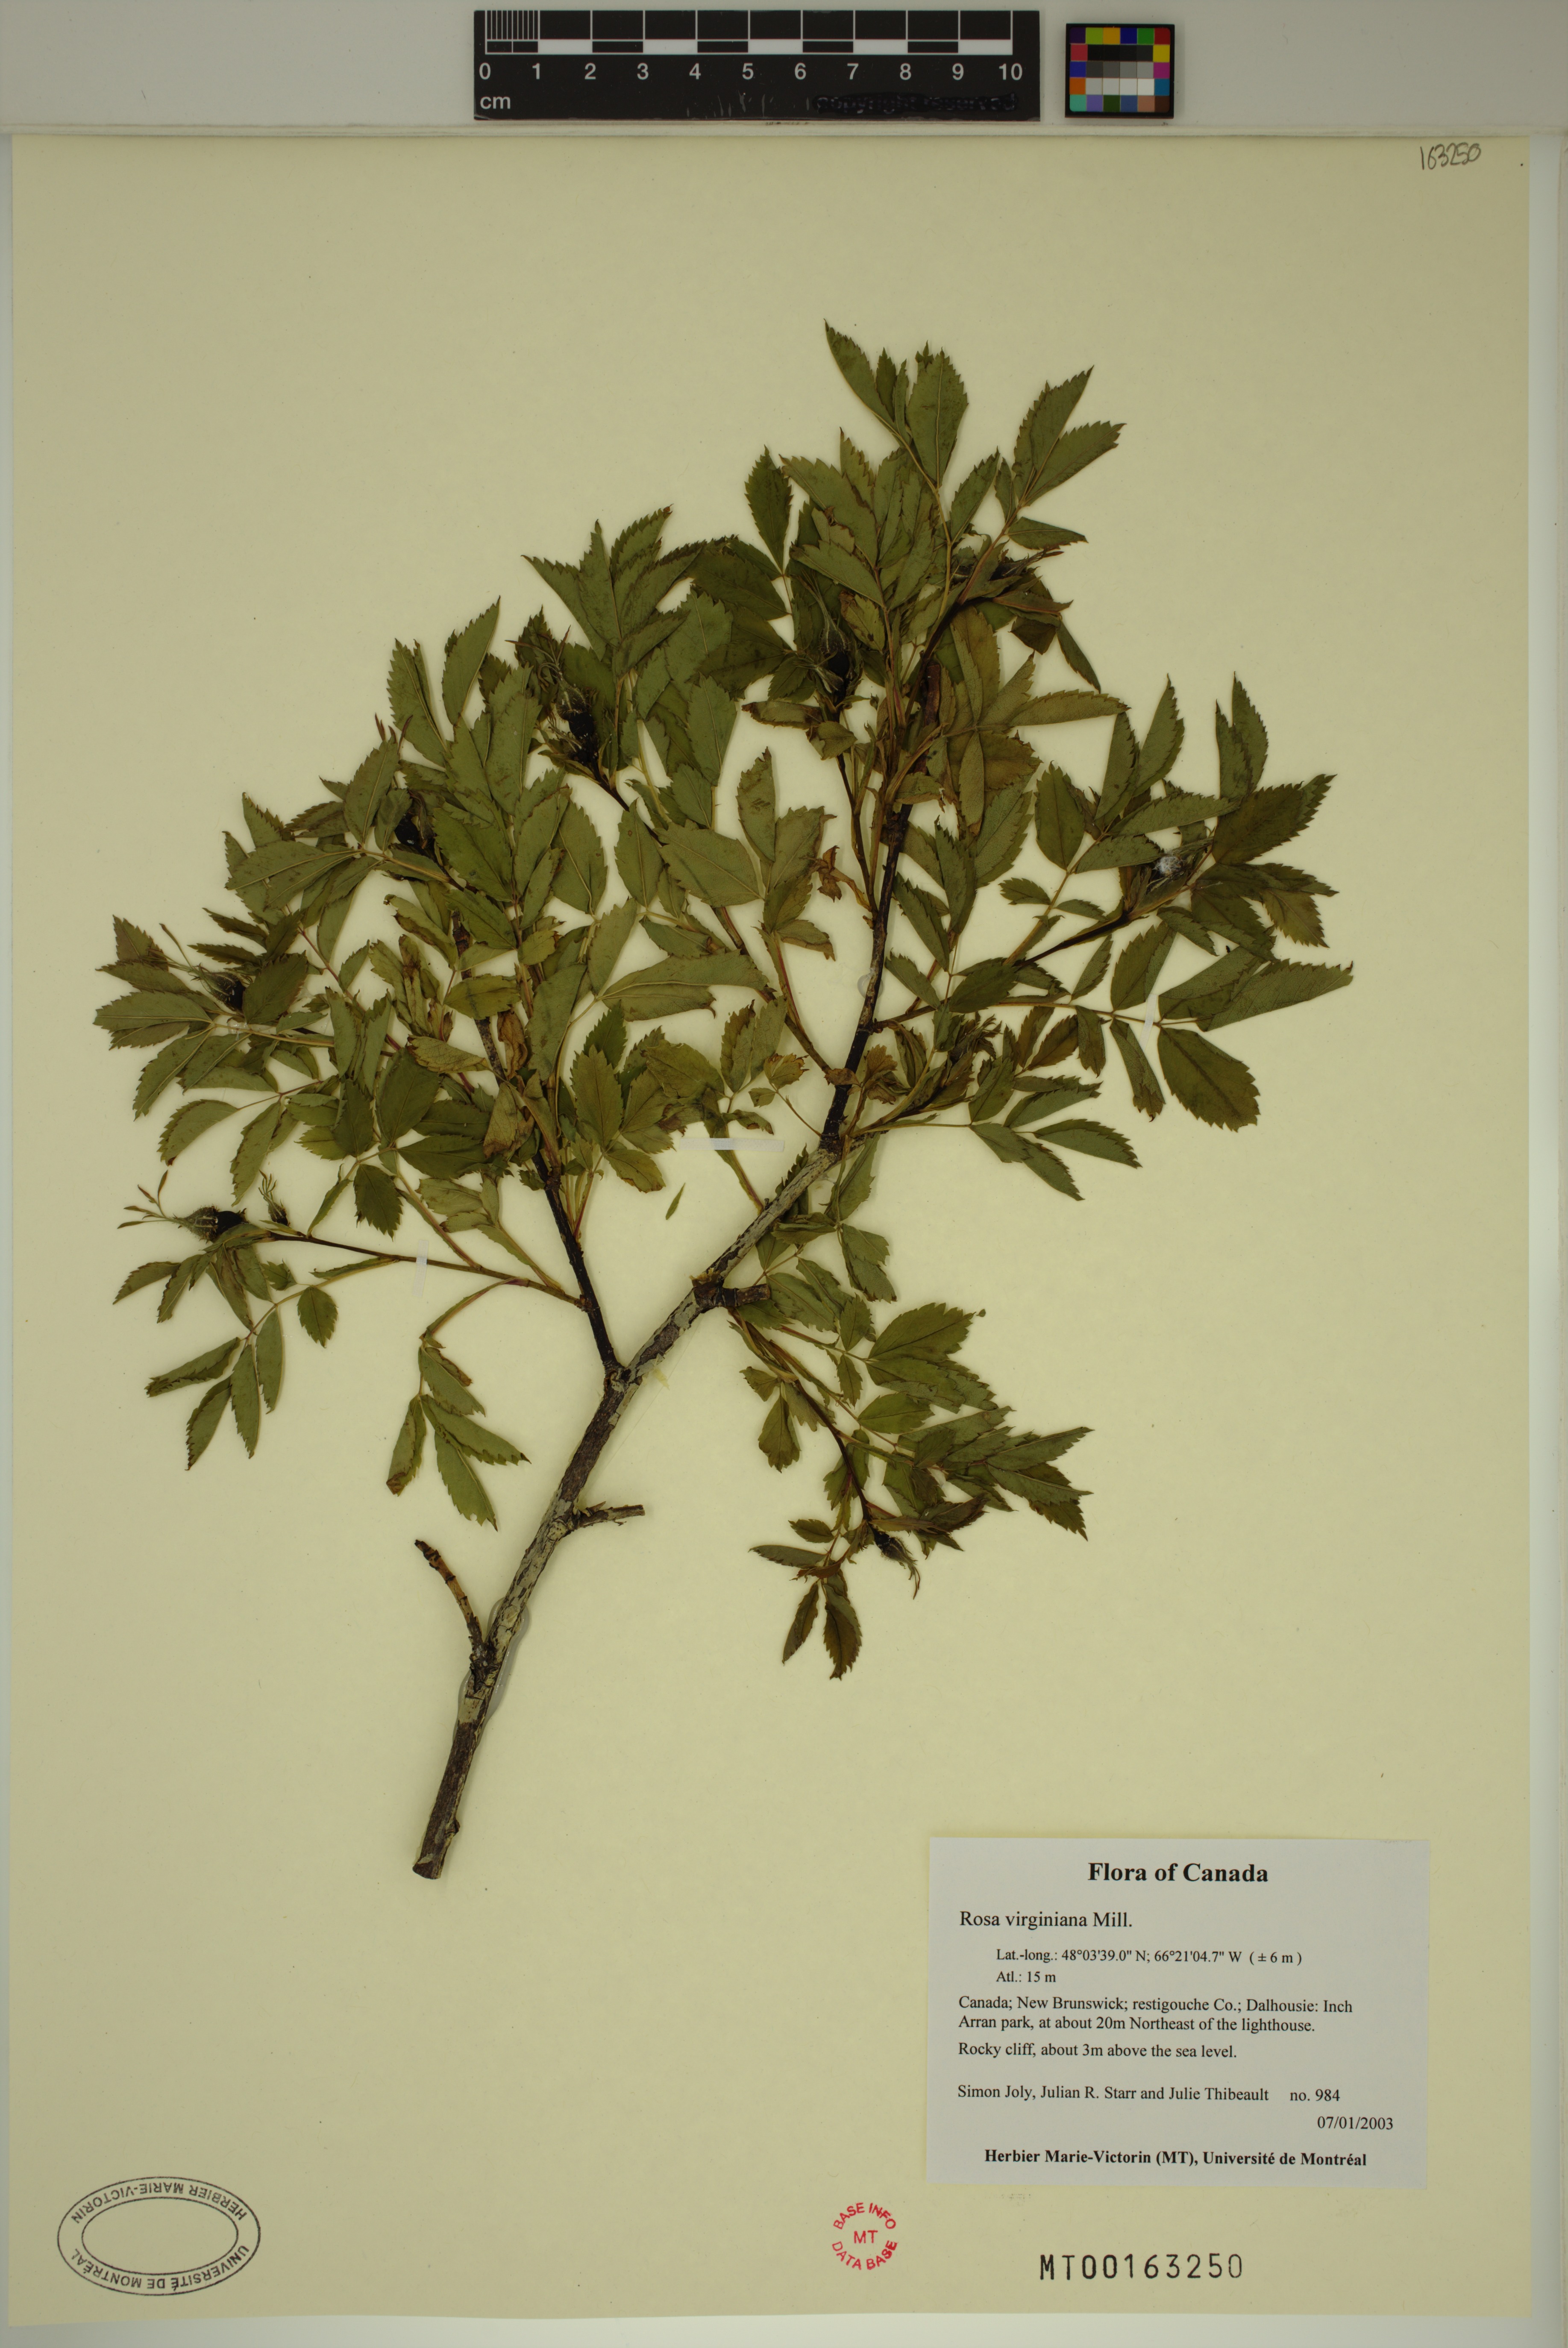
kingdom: Plantae
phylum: Tracheophyta
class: Magnoliopsida
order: Rosales
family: Rosaceae
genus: Rosa
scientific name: Rosa carolina
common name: Pasture rose
